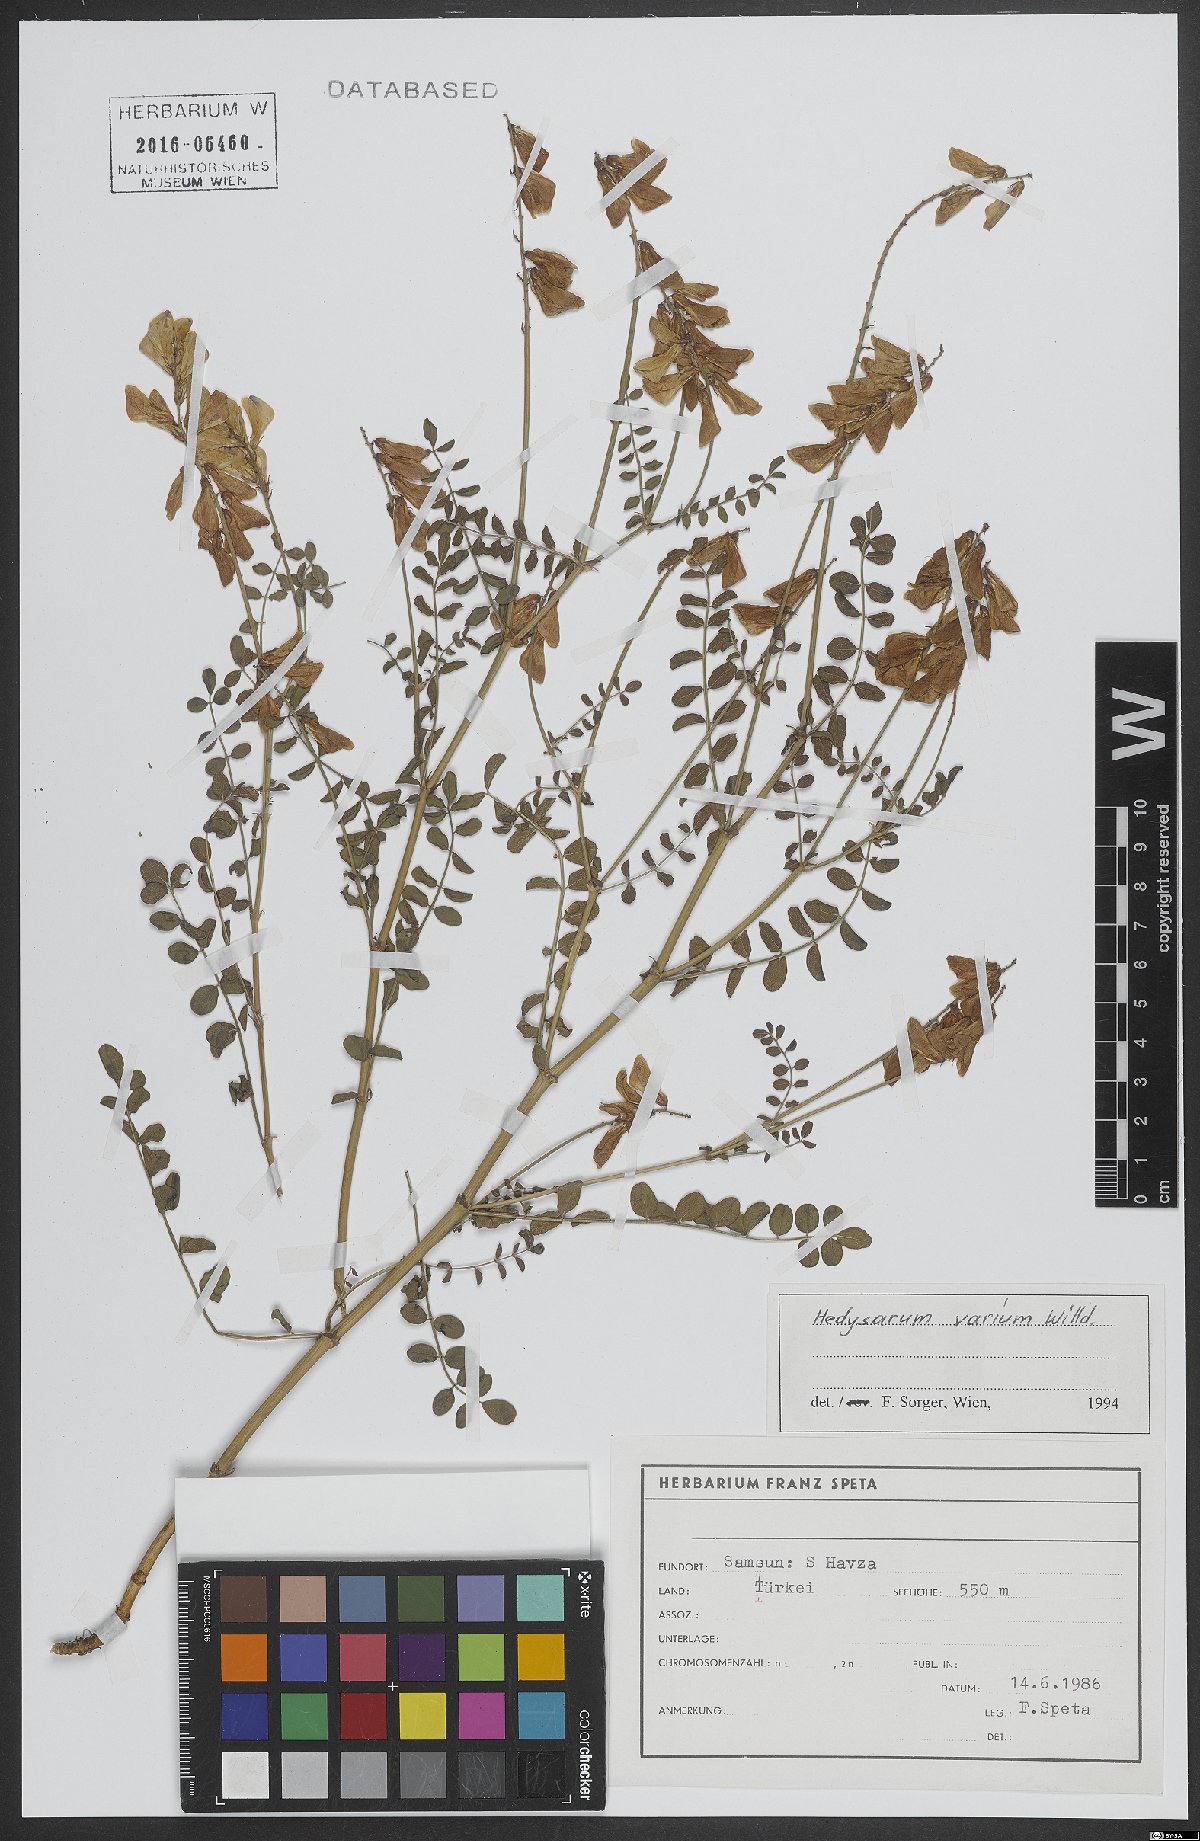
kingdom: Plantae
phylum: Tracheophyta
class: Magnoliopsida
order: Fabales
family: Fabaceae
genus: Hedysarum
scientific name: Hedysarum varium
